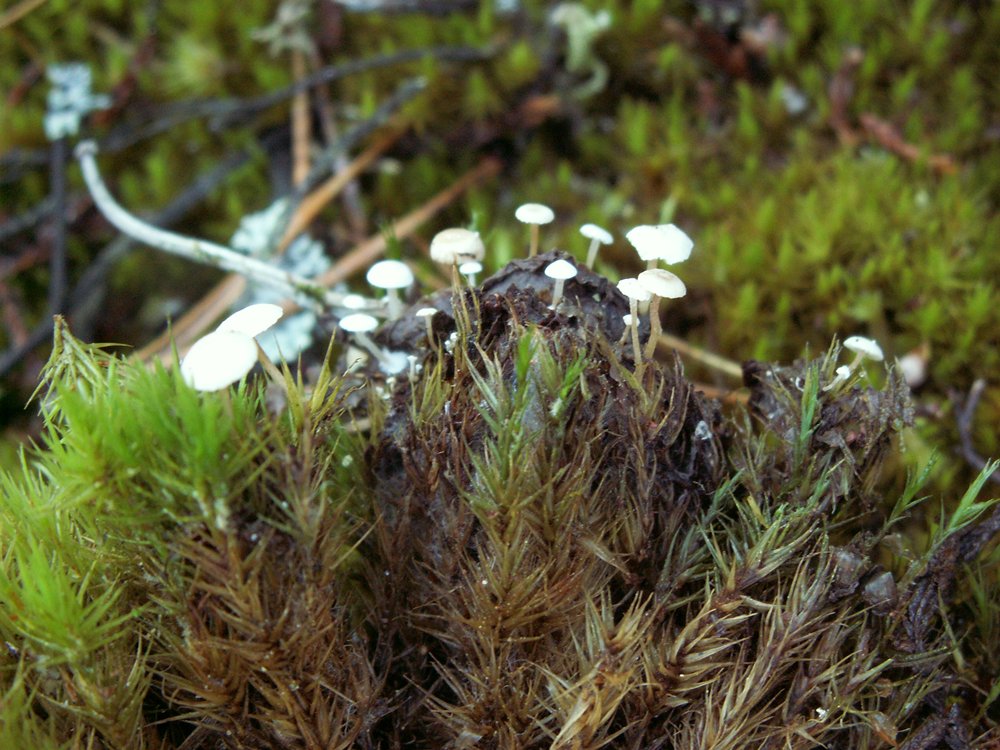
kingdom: Fungi
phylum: Basidiomycota
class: Agaricomycetes
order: Agaricales
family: Tricholomataceae
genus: Collybia
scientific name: Collybia cirrhata
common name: silke-lighat
